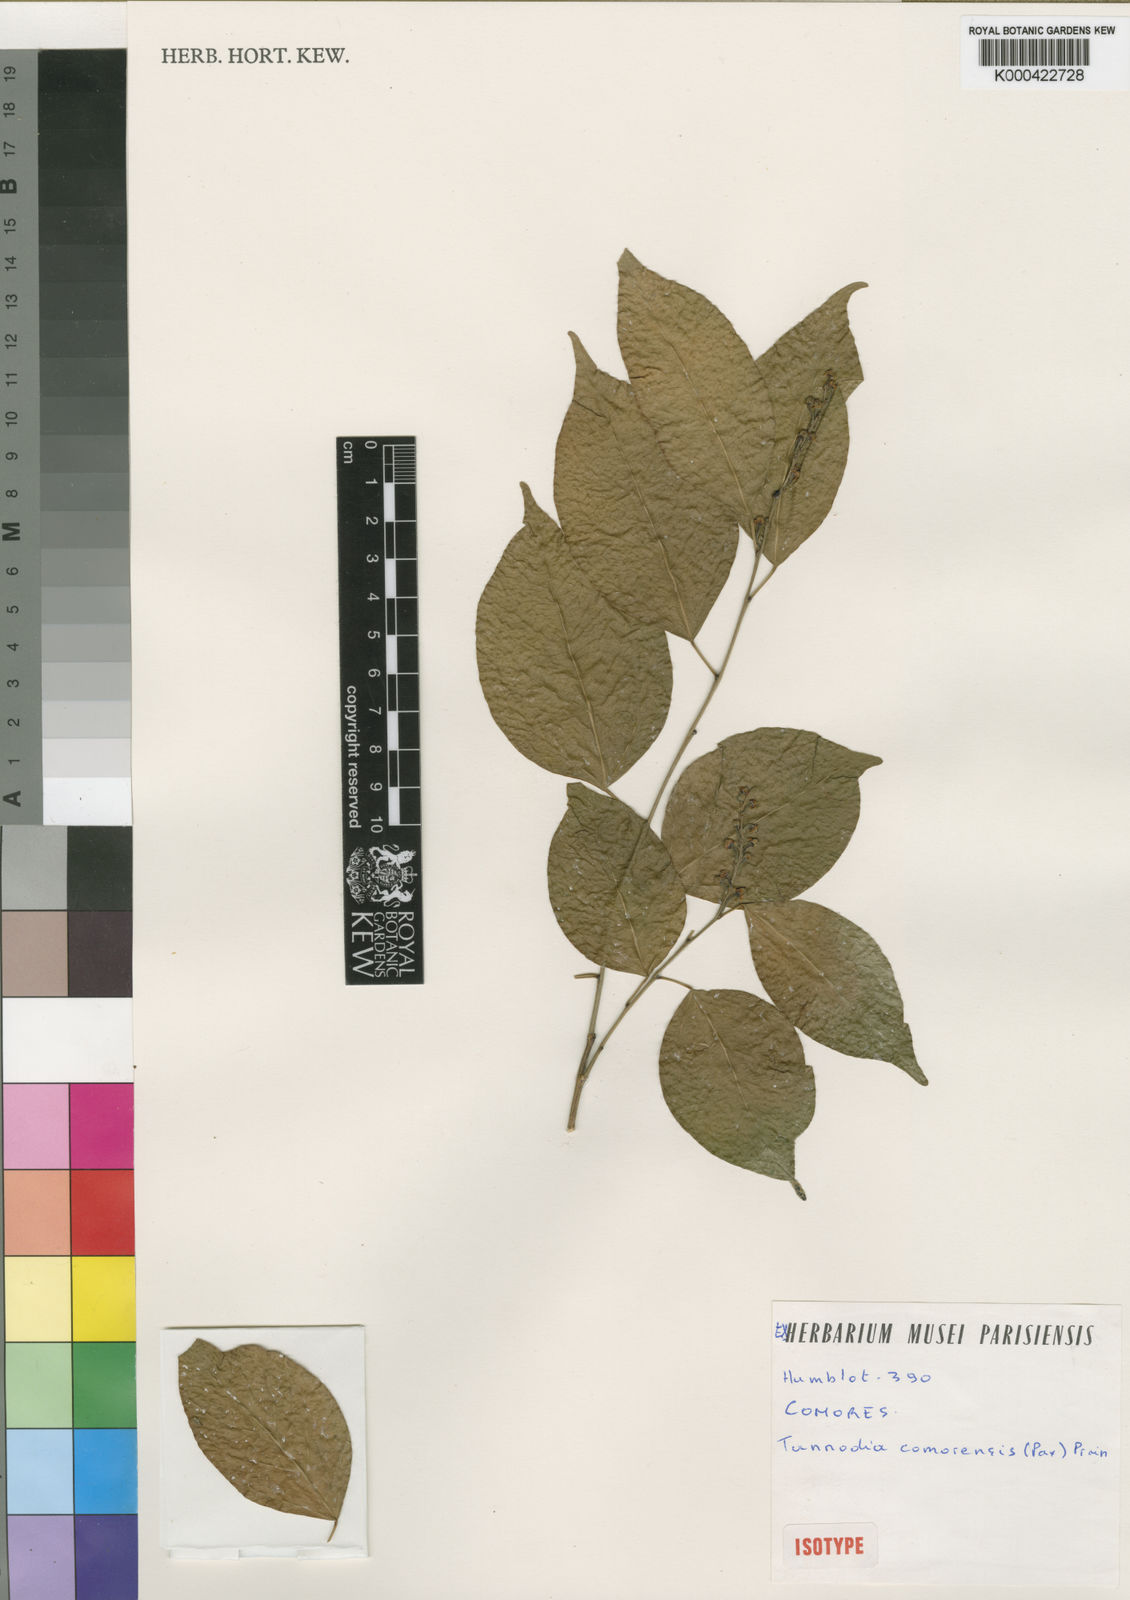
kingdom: Plantae
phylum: Tracheophyta
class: Magnoliopsida
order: Malpighiales
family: Euphorbiaceae
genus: Tannodia
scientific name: Tannodia cordifolia
